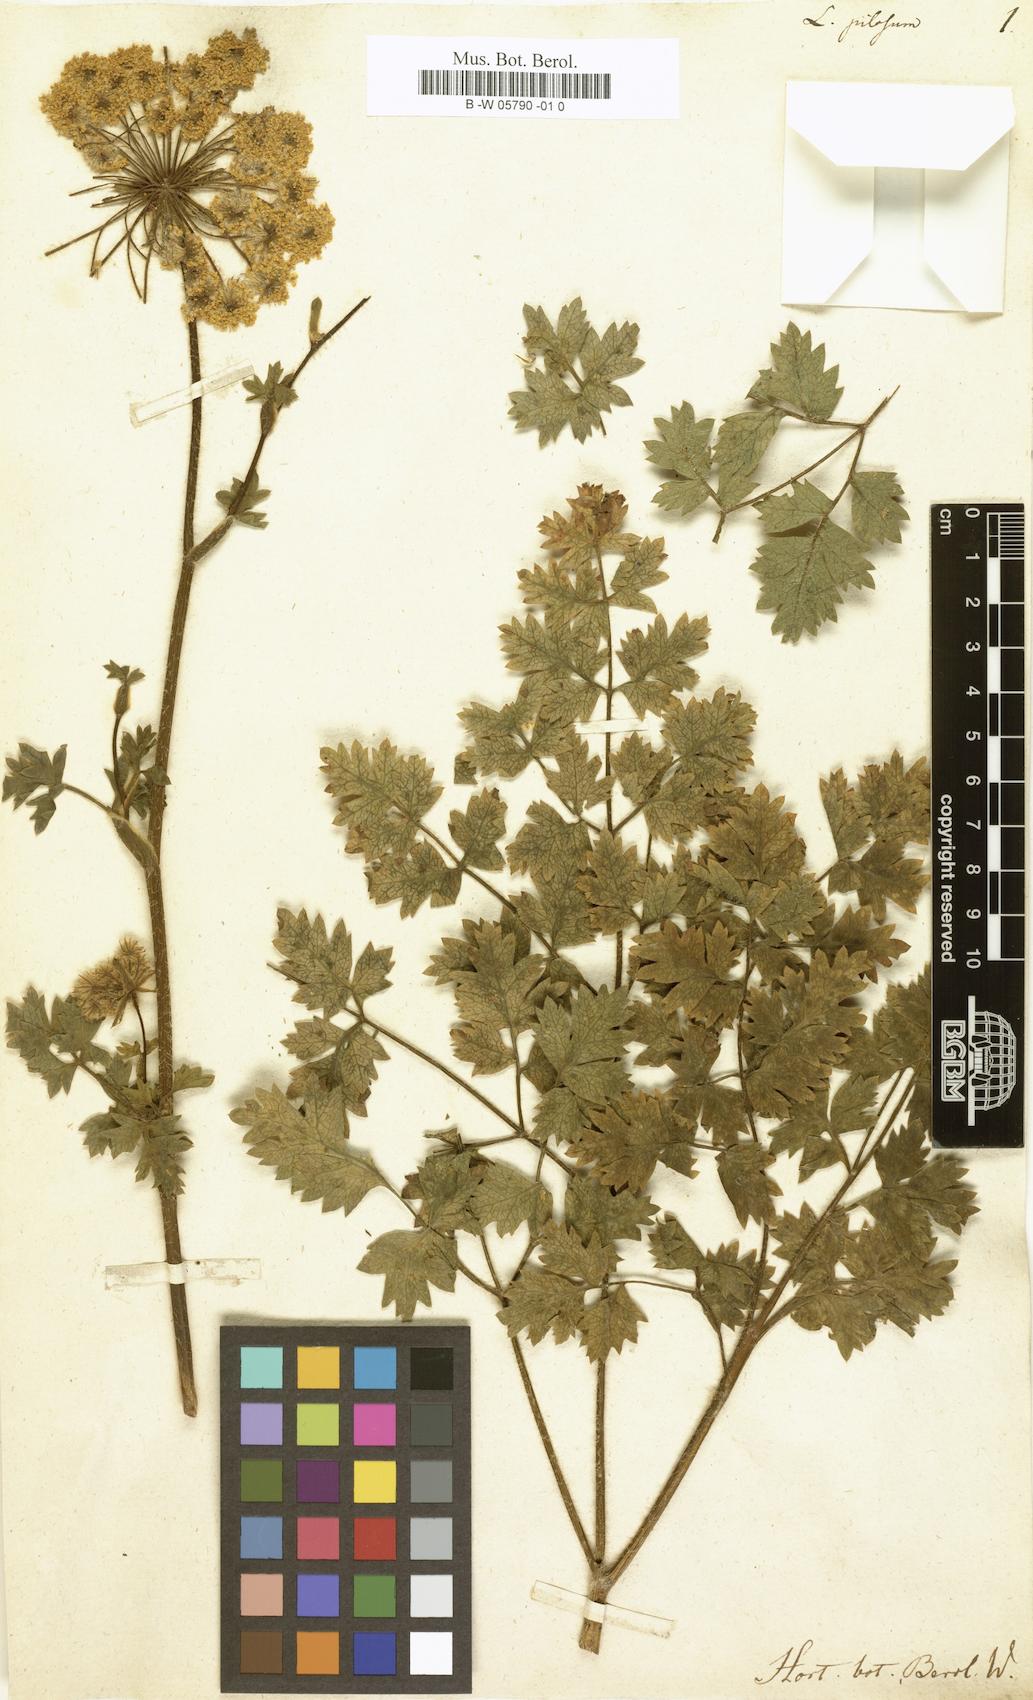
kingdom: Plantae
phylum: Tracheophyta
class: Magnoliopsida
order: Apiales
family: Apiaceae
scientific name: Apiaceae
